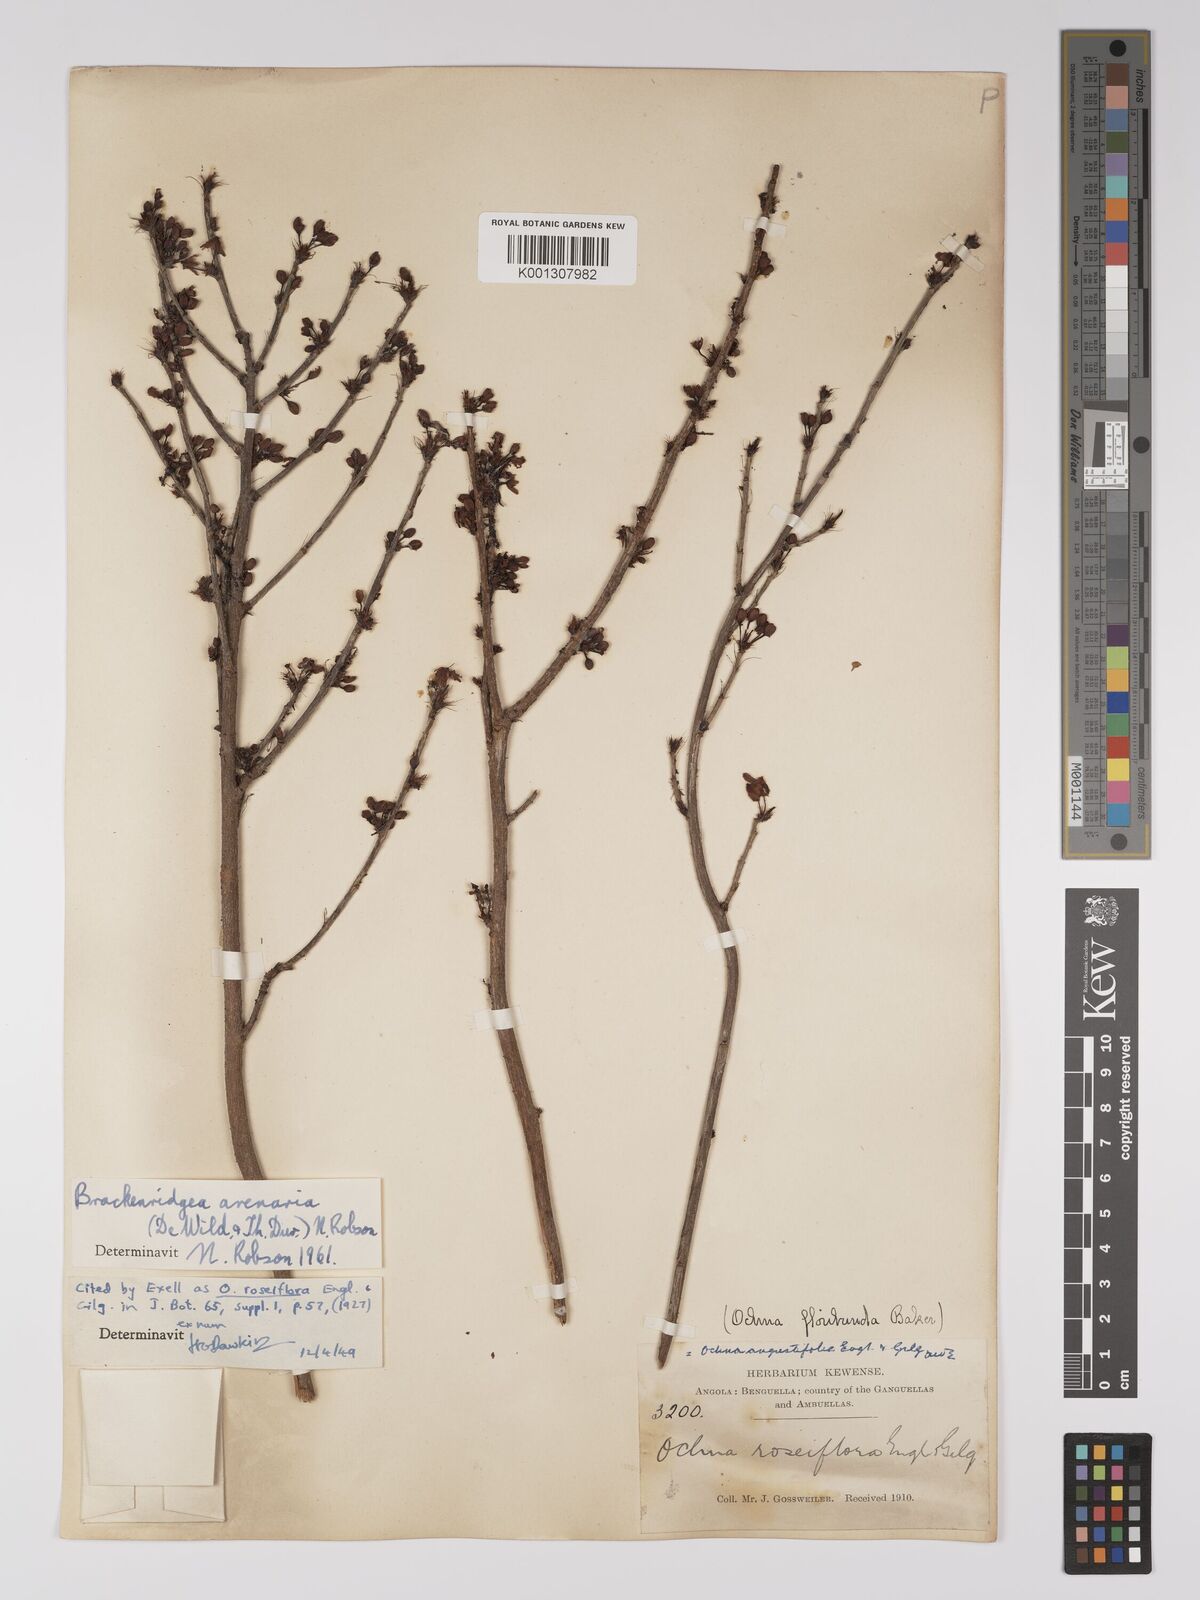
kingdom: Plantae
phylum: Tracheophyta
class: Magnoliopsida
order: Malpighiales
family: Ochnaceae
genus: Brackenridgea
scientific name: Brackenridgea
